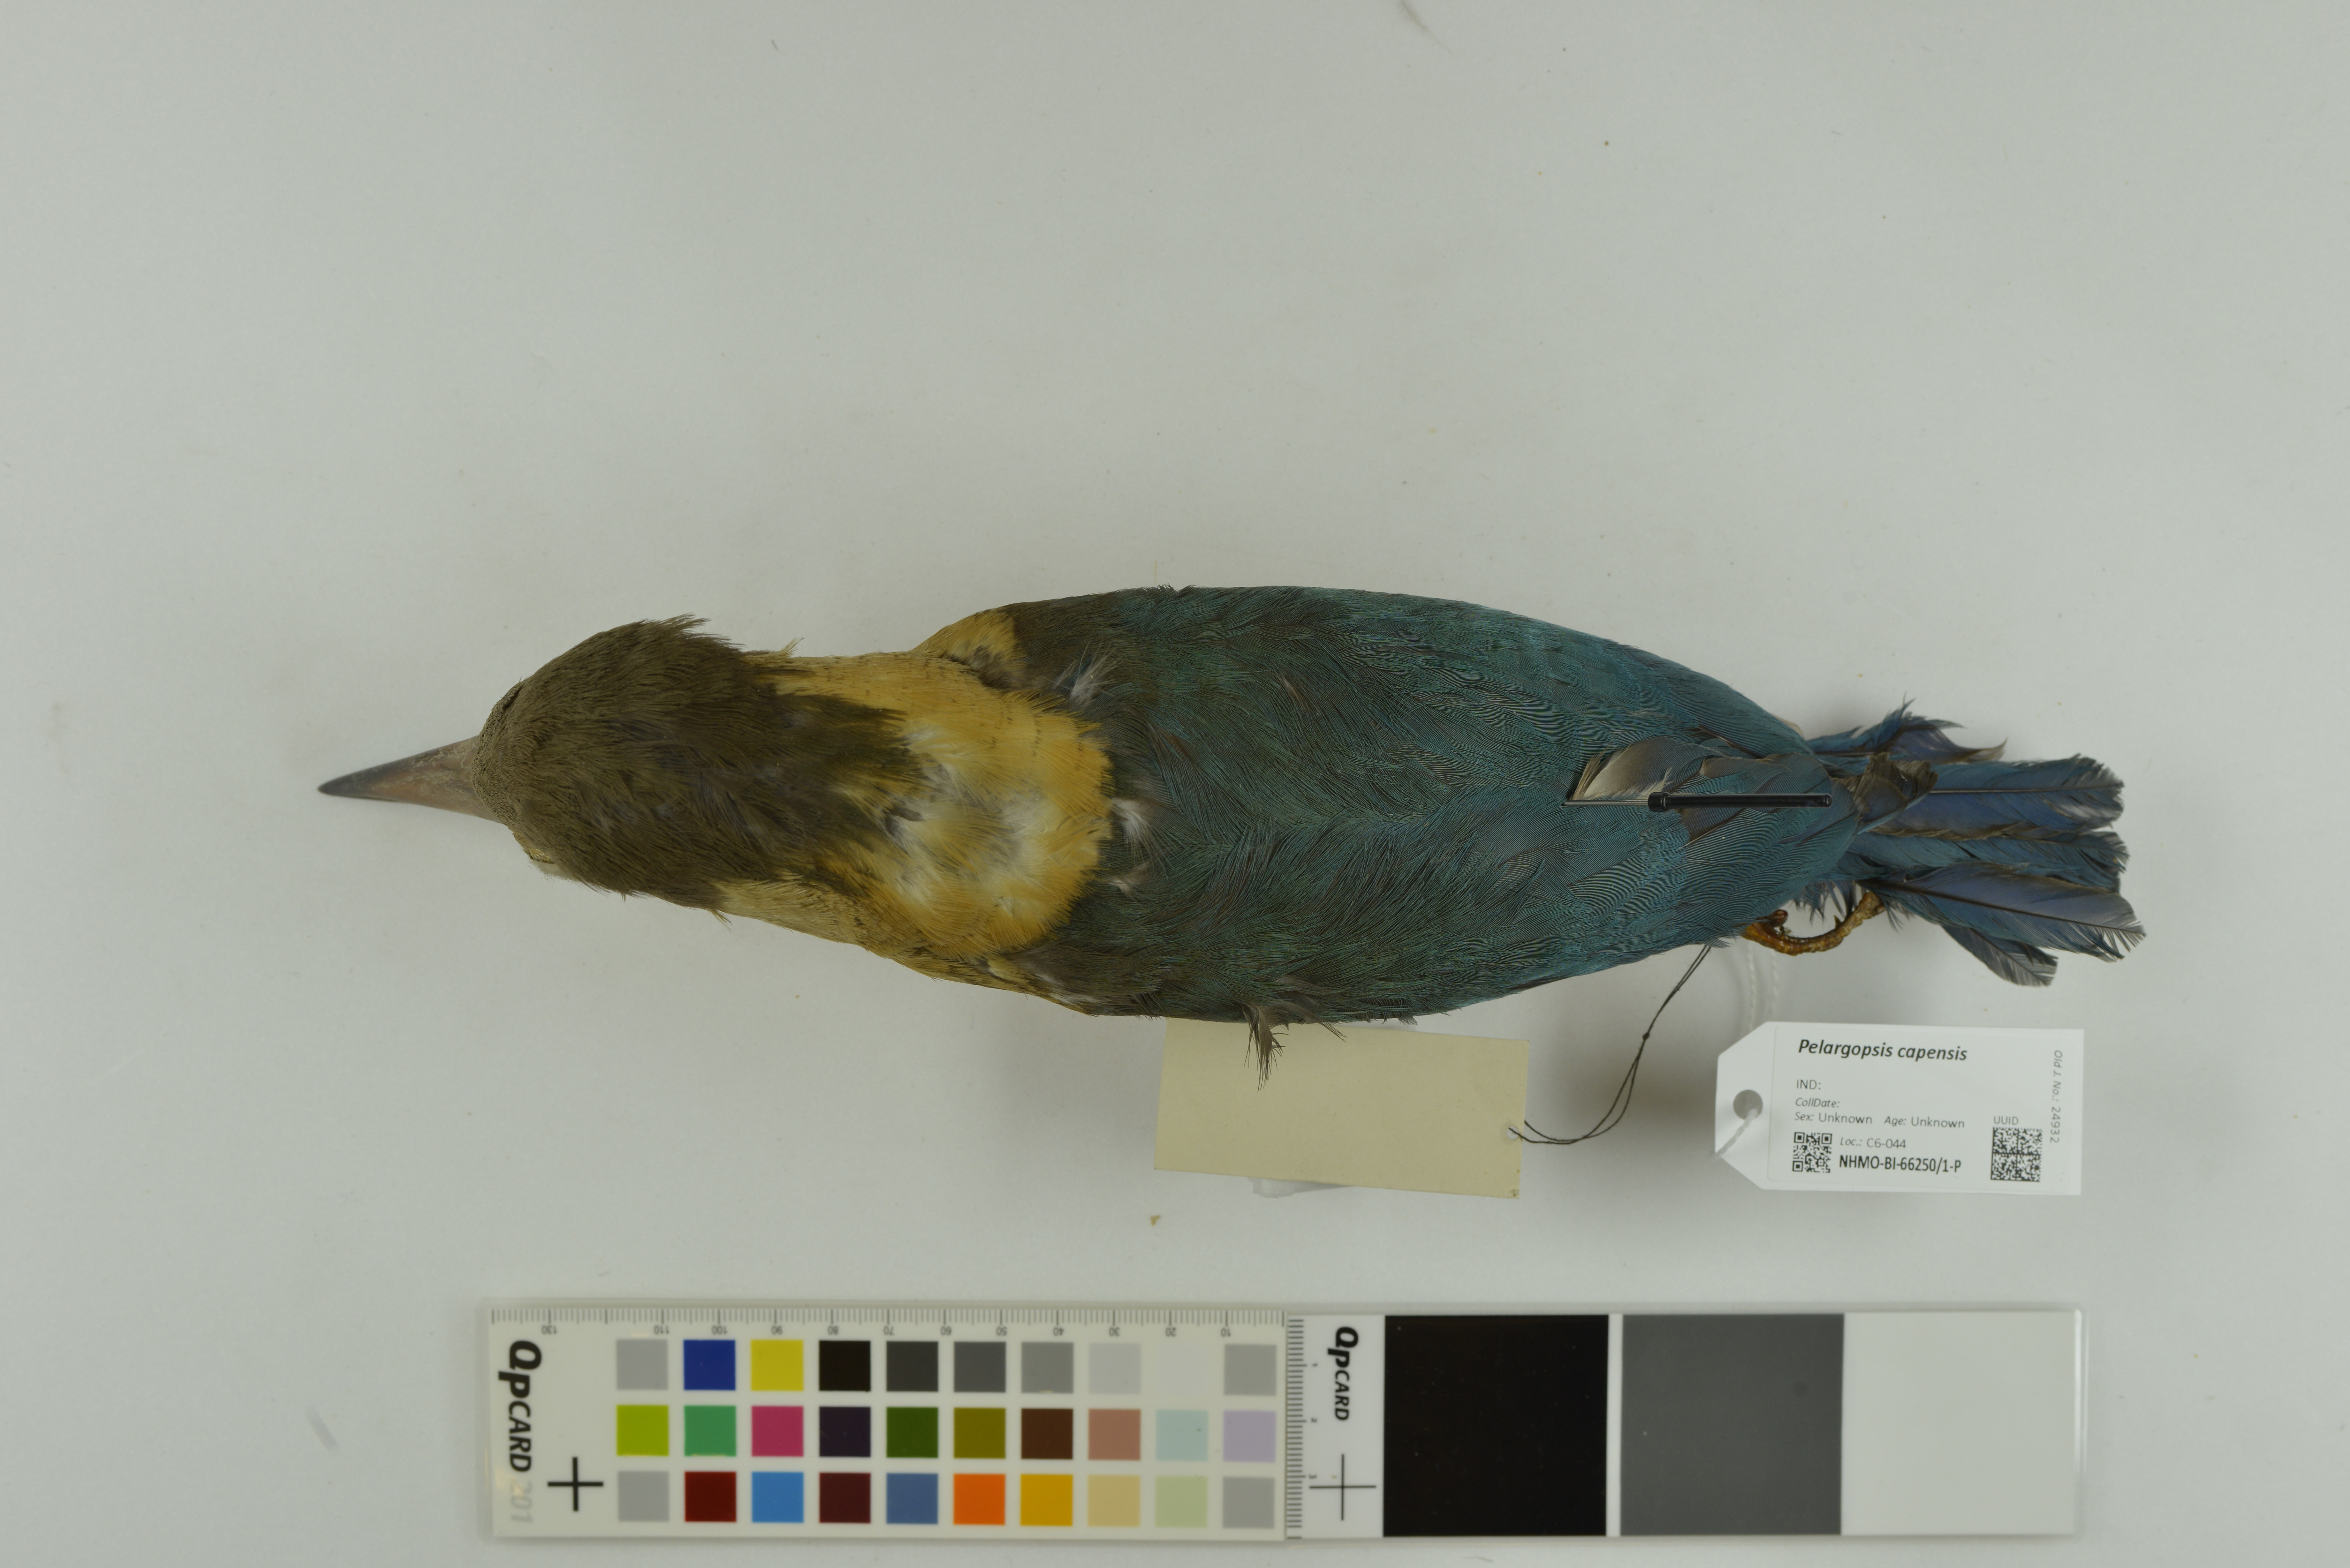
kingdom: Animalia
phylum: Chordata
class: Aves
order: Coraciiformes
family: Alcedinidae
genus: Pelargopsis
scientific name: Pelargopsis capensis
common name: Stork-billed kingfisher
